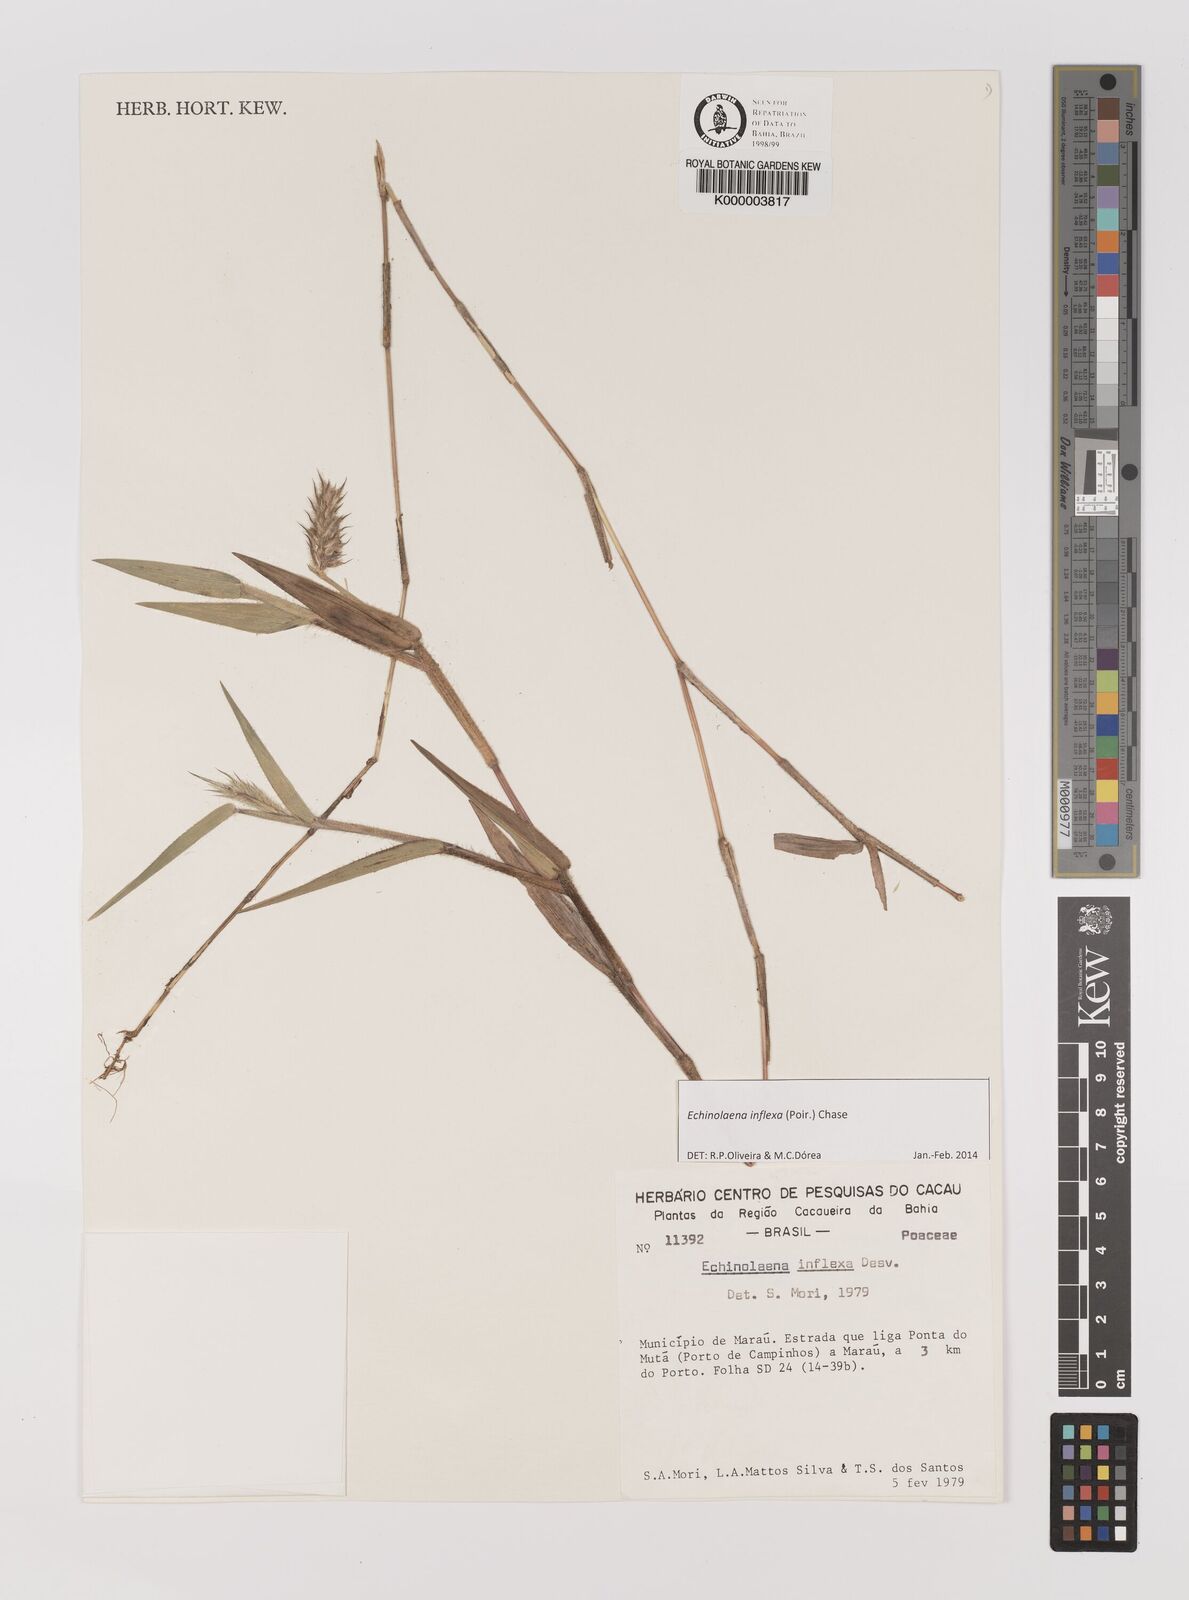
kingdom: Plantae
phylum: Tracheophyta
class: Liliopsida
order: Poales
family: Poaceae
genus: Echinolaena
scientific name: Echinolaena inflexa
